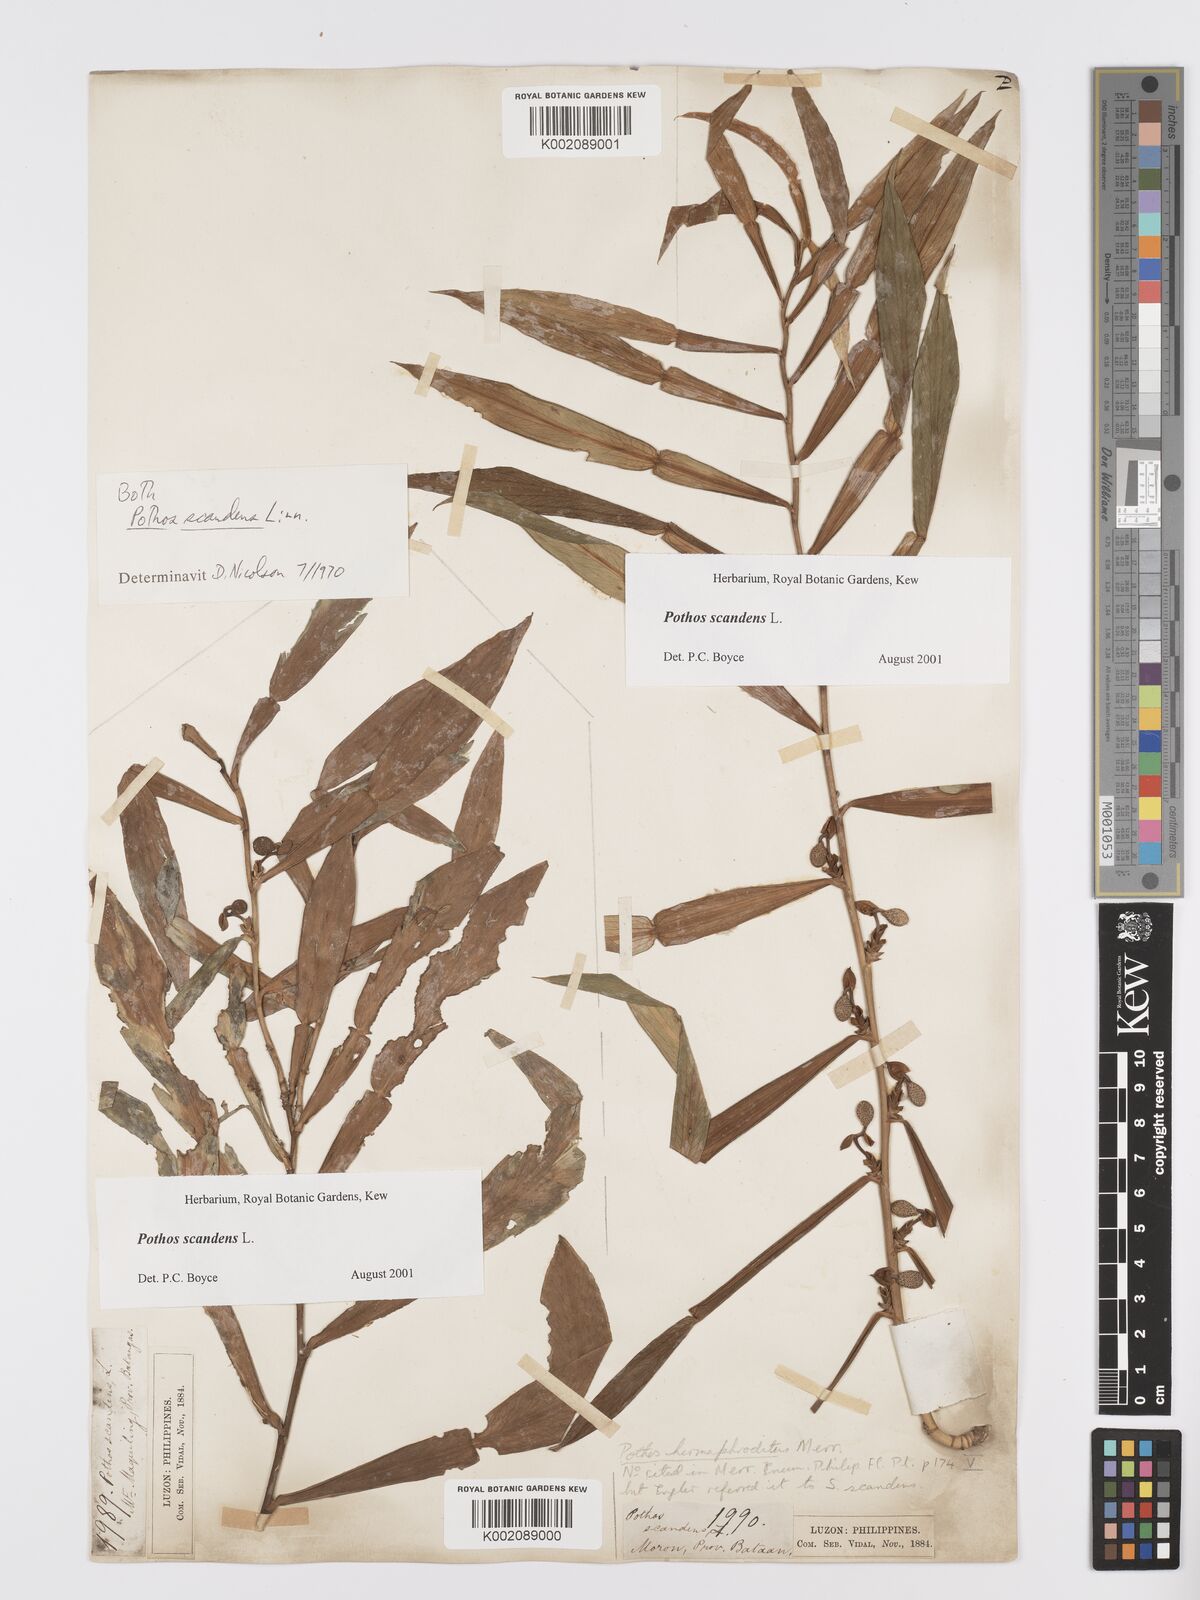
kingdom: Plantae
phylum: Tracheophyta
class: Liliopsida
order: Alismatales
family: Araceae
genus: Pothos
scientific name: Pothos scandens
